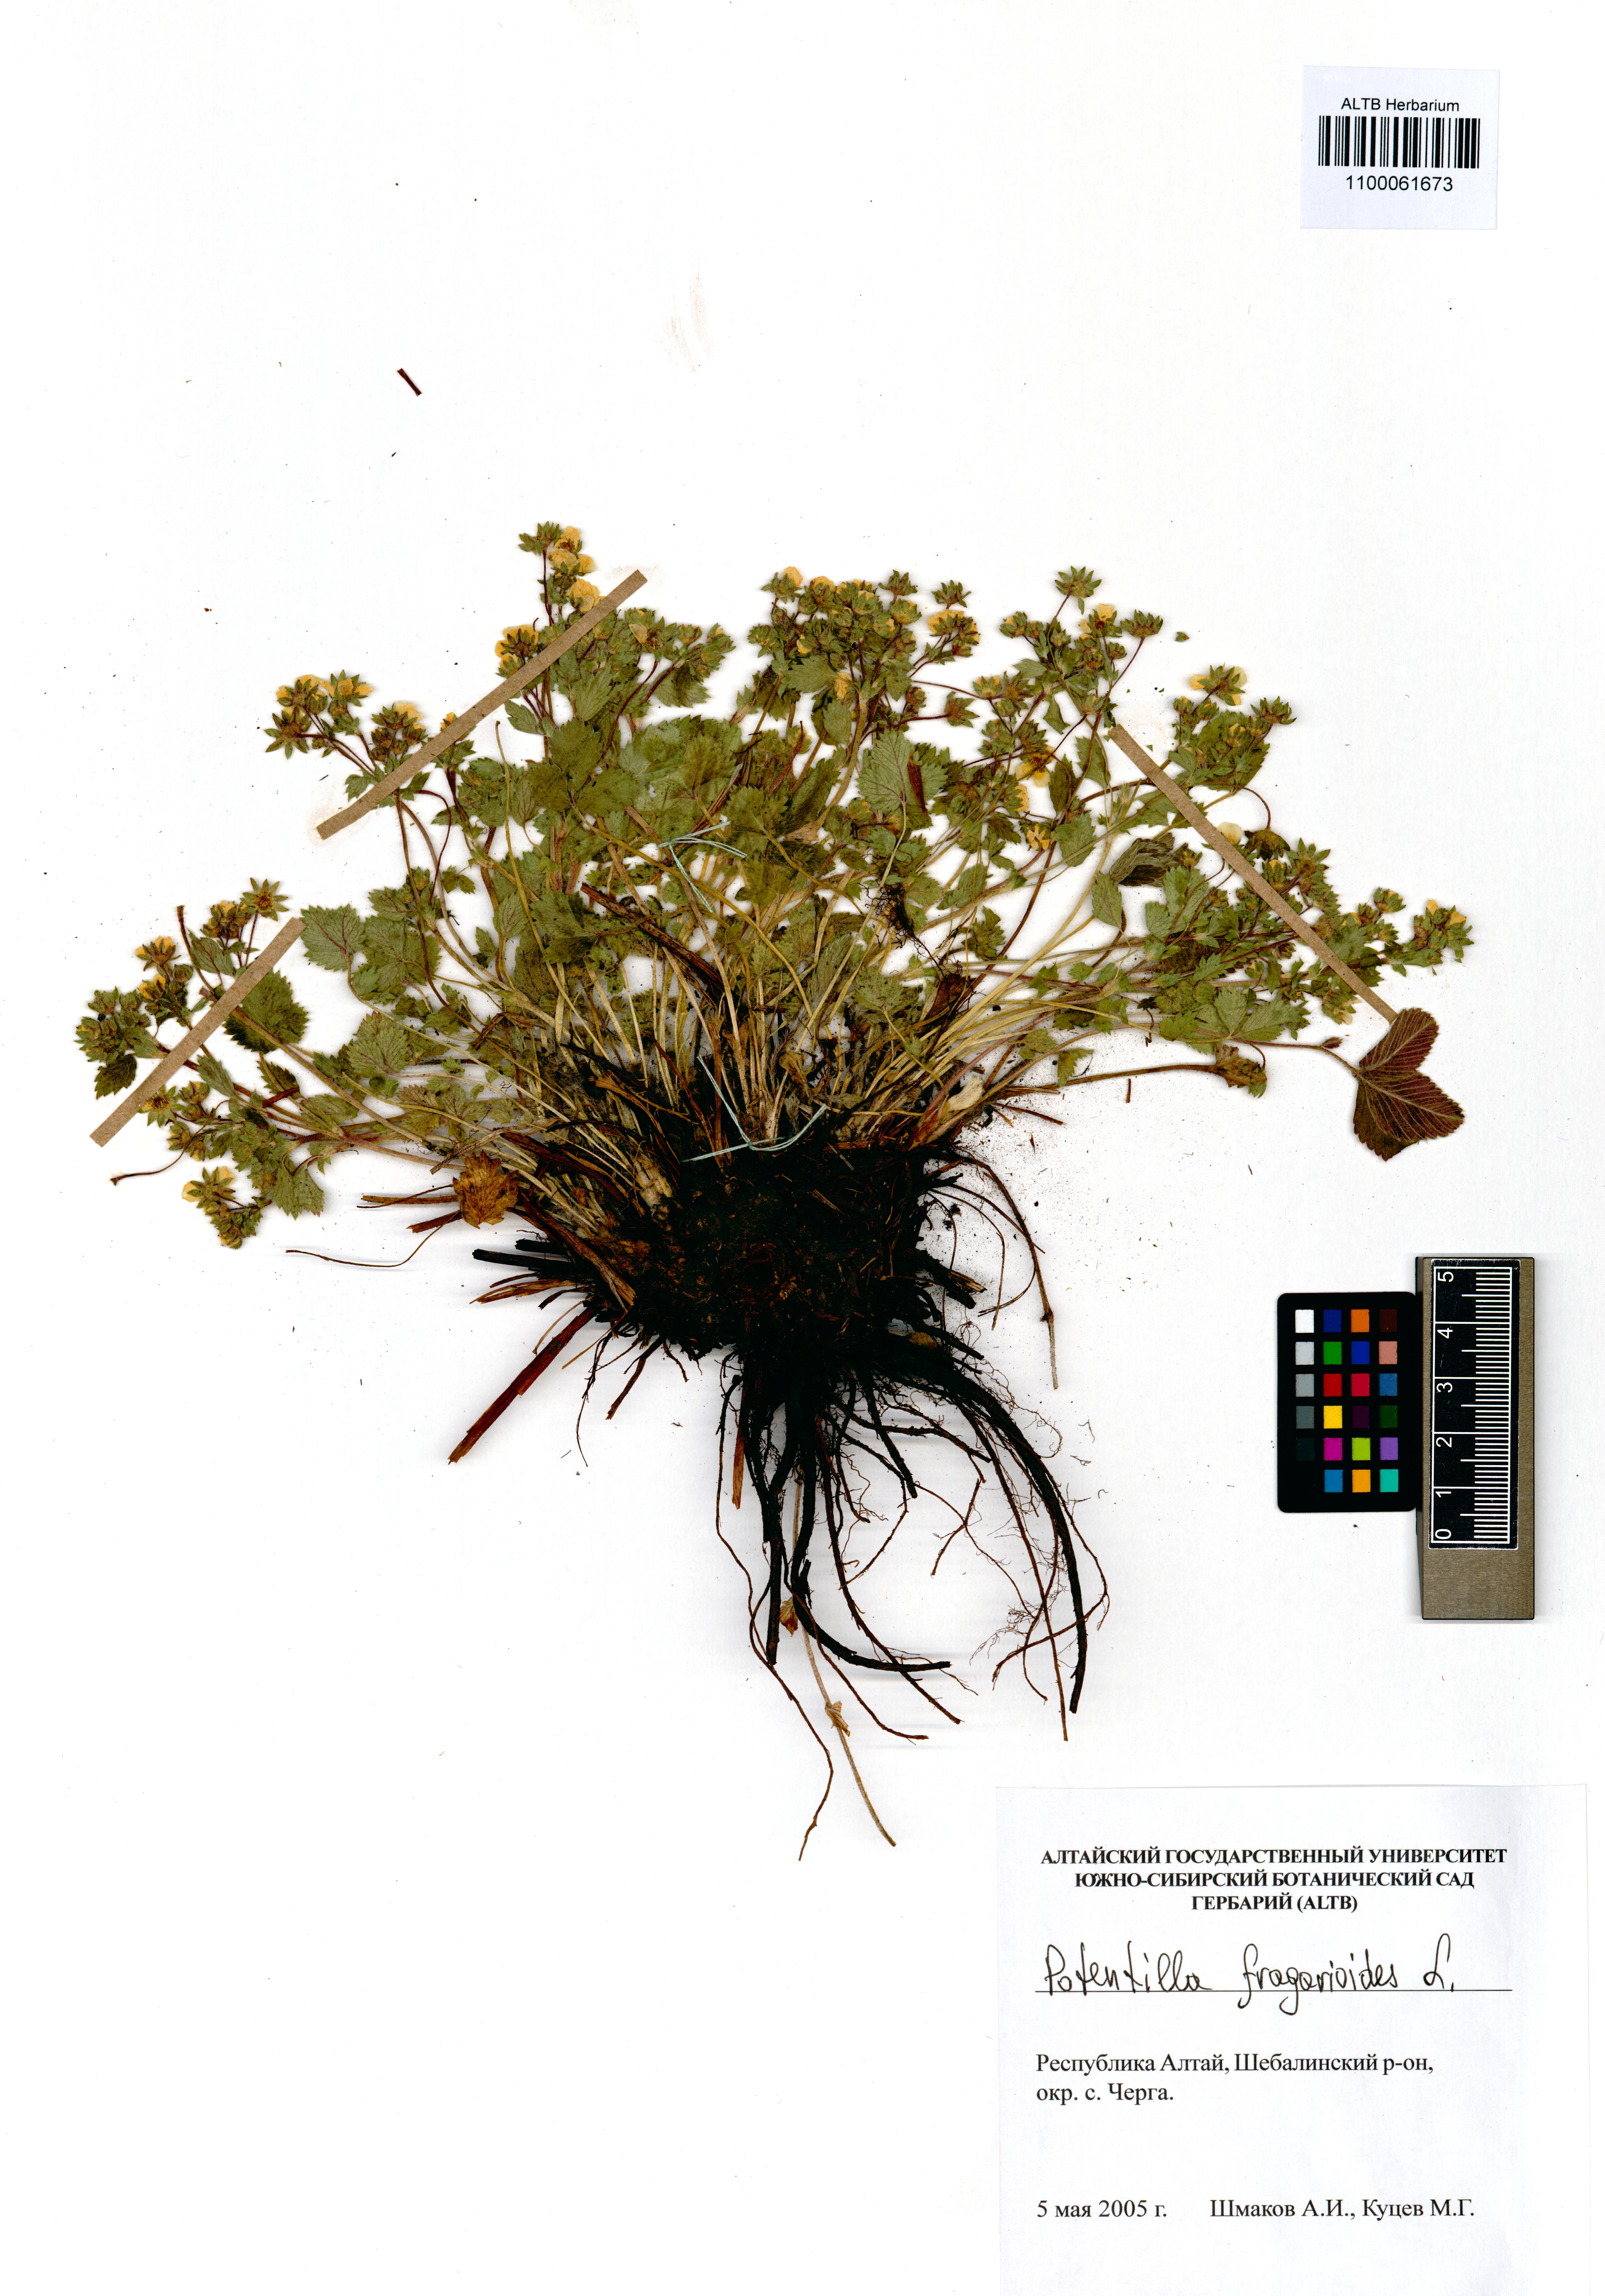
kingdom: Plantae
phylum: Tracheophyta
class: Magnoliopsida
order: Rosales
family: Rosaceae
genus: Potentilla
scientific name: Potentilla fragarioides
